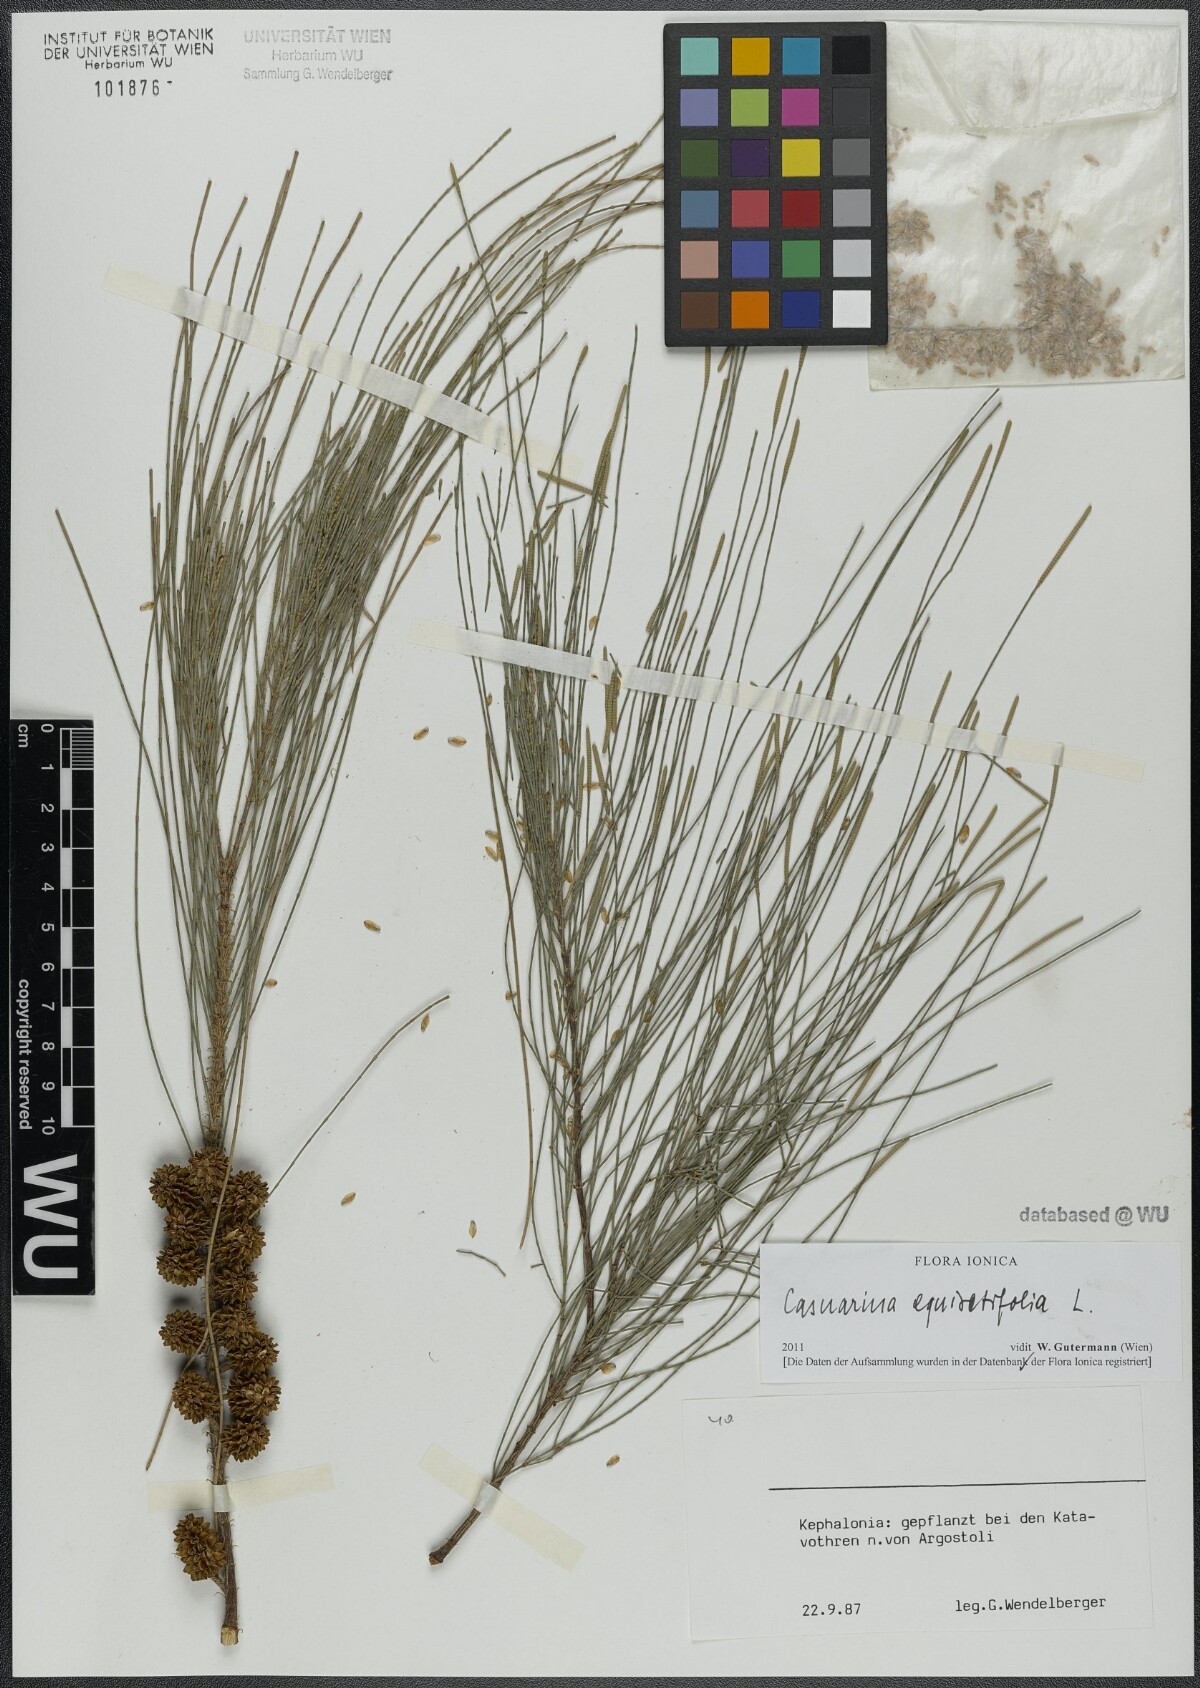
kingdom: Plantae
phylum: Tracheophyta
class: Magnoliopsida
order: Fagales
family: Casuarinaceae
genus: Casuarina
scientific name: Casuarina equisetifolia
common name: Beach sheoak
